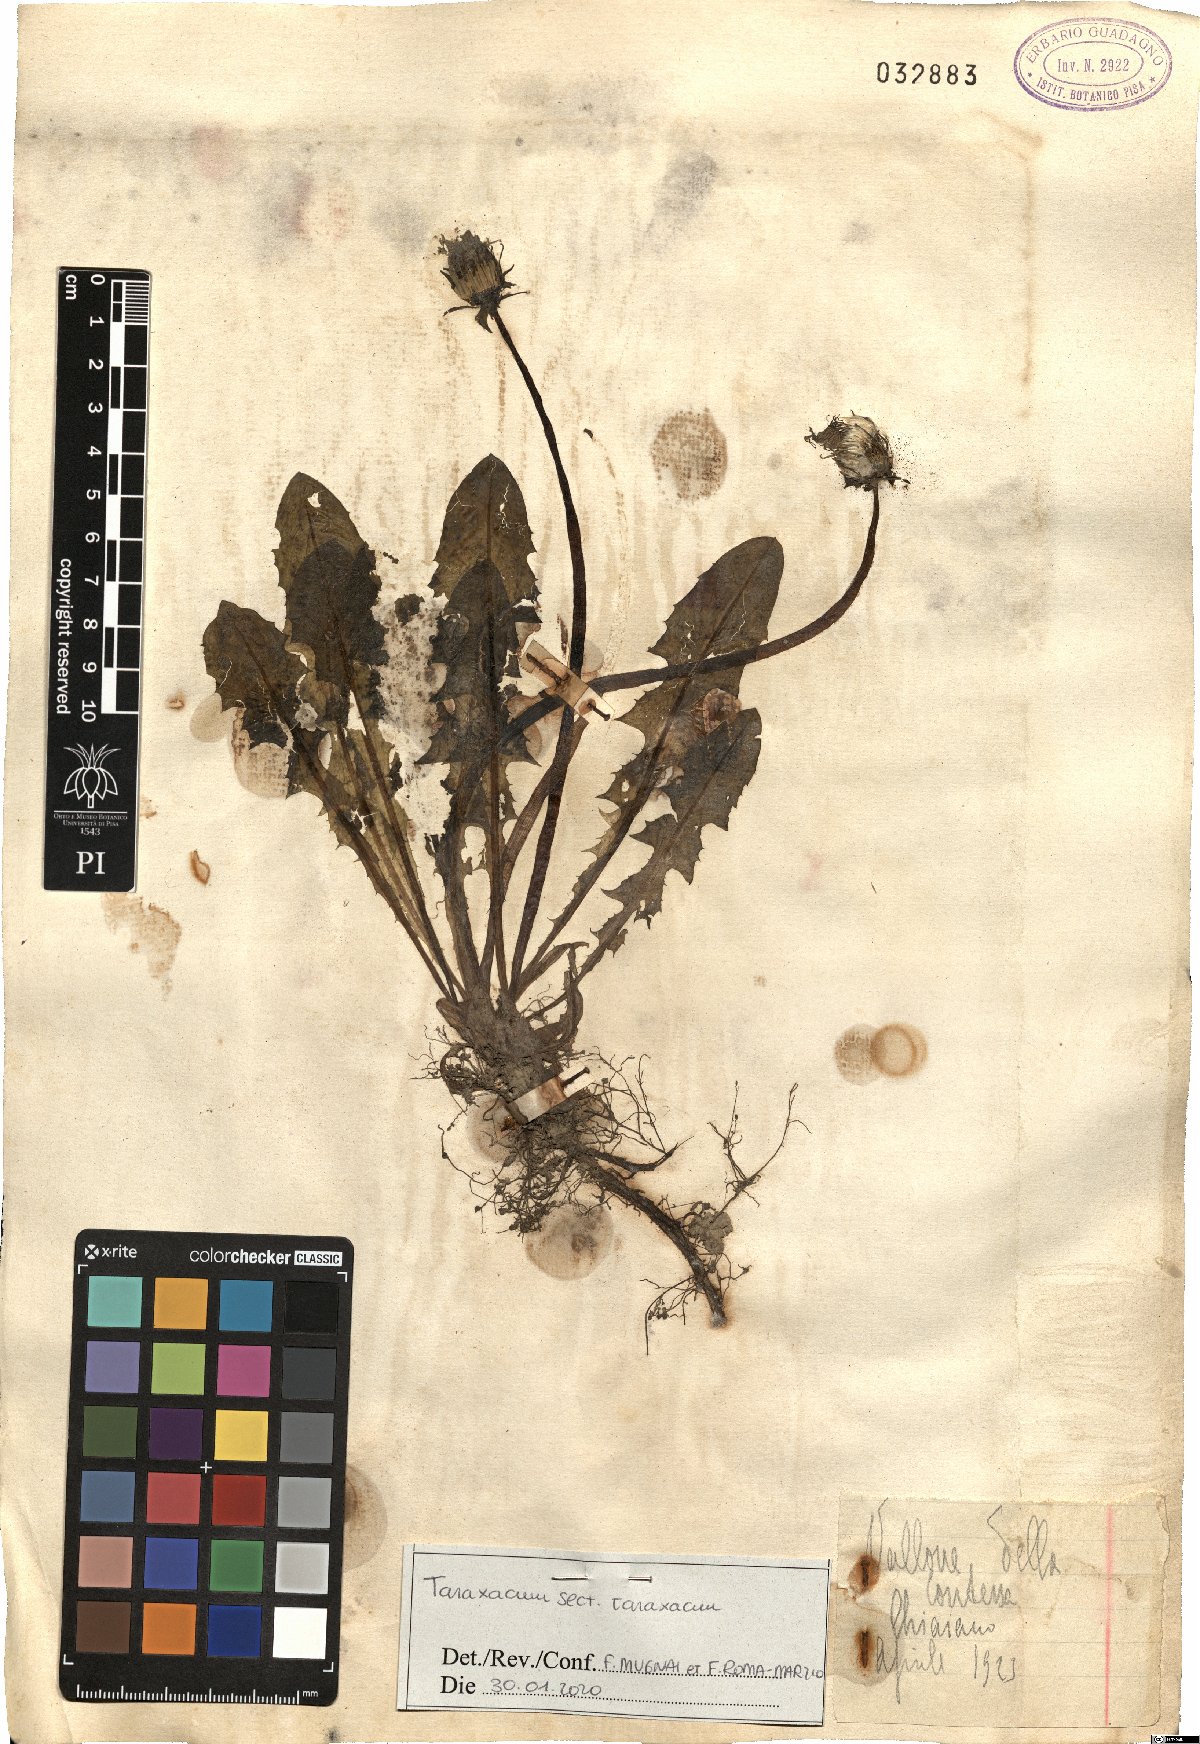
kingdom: Plantae
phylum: Tracheophyta
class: Magnoliopsida
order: Asterales
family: Asteraceae
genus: Taraxacum
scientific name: Taraxacum
